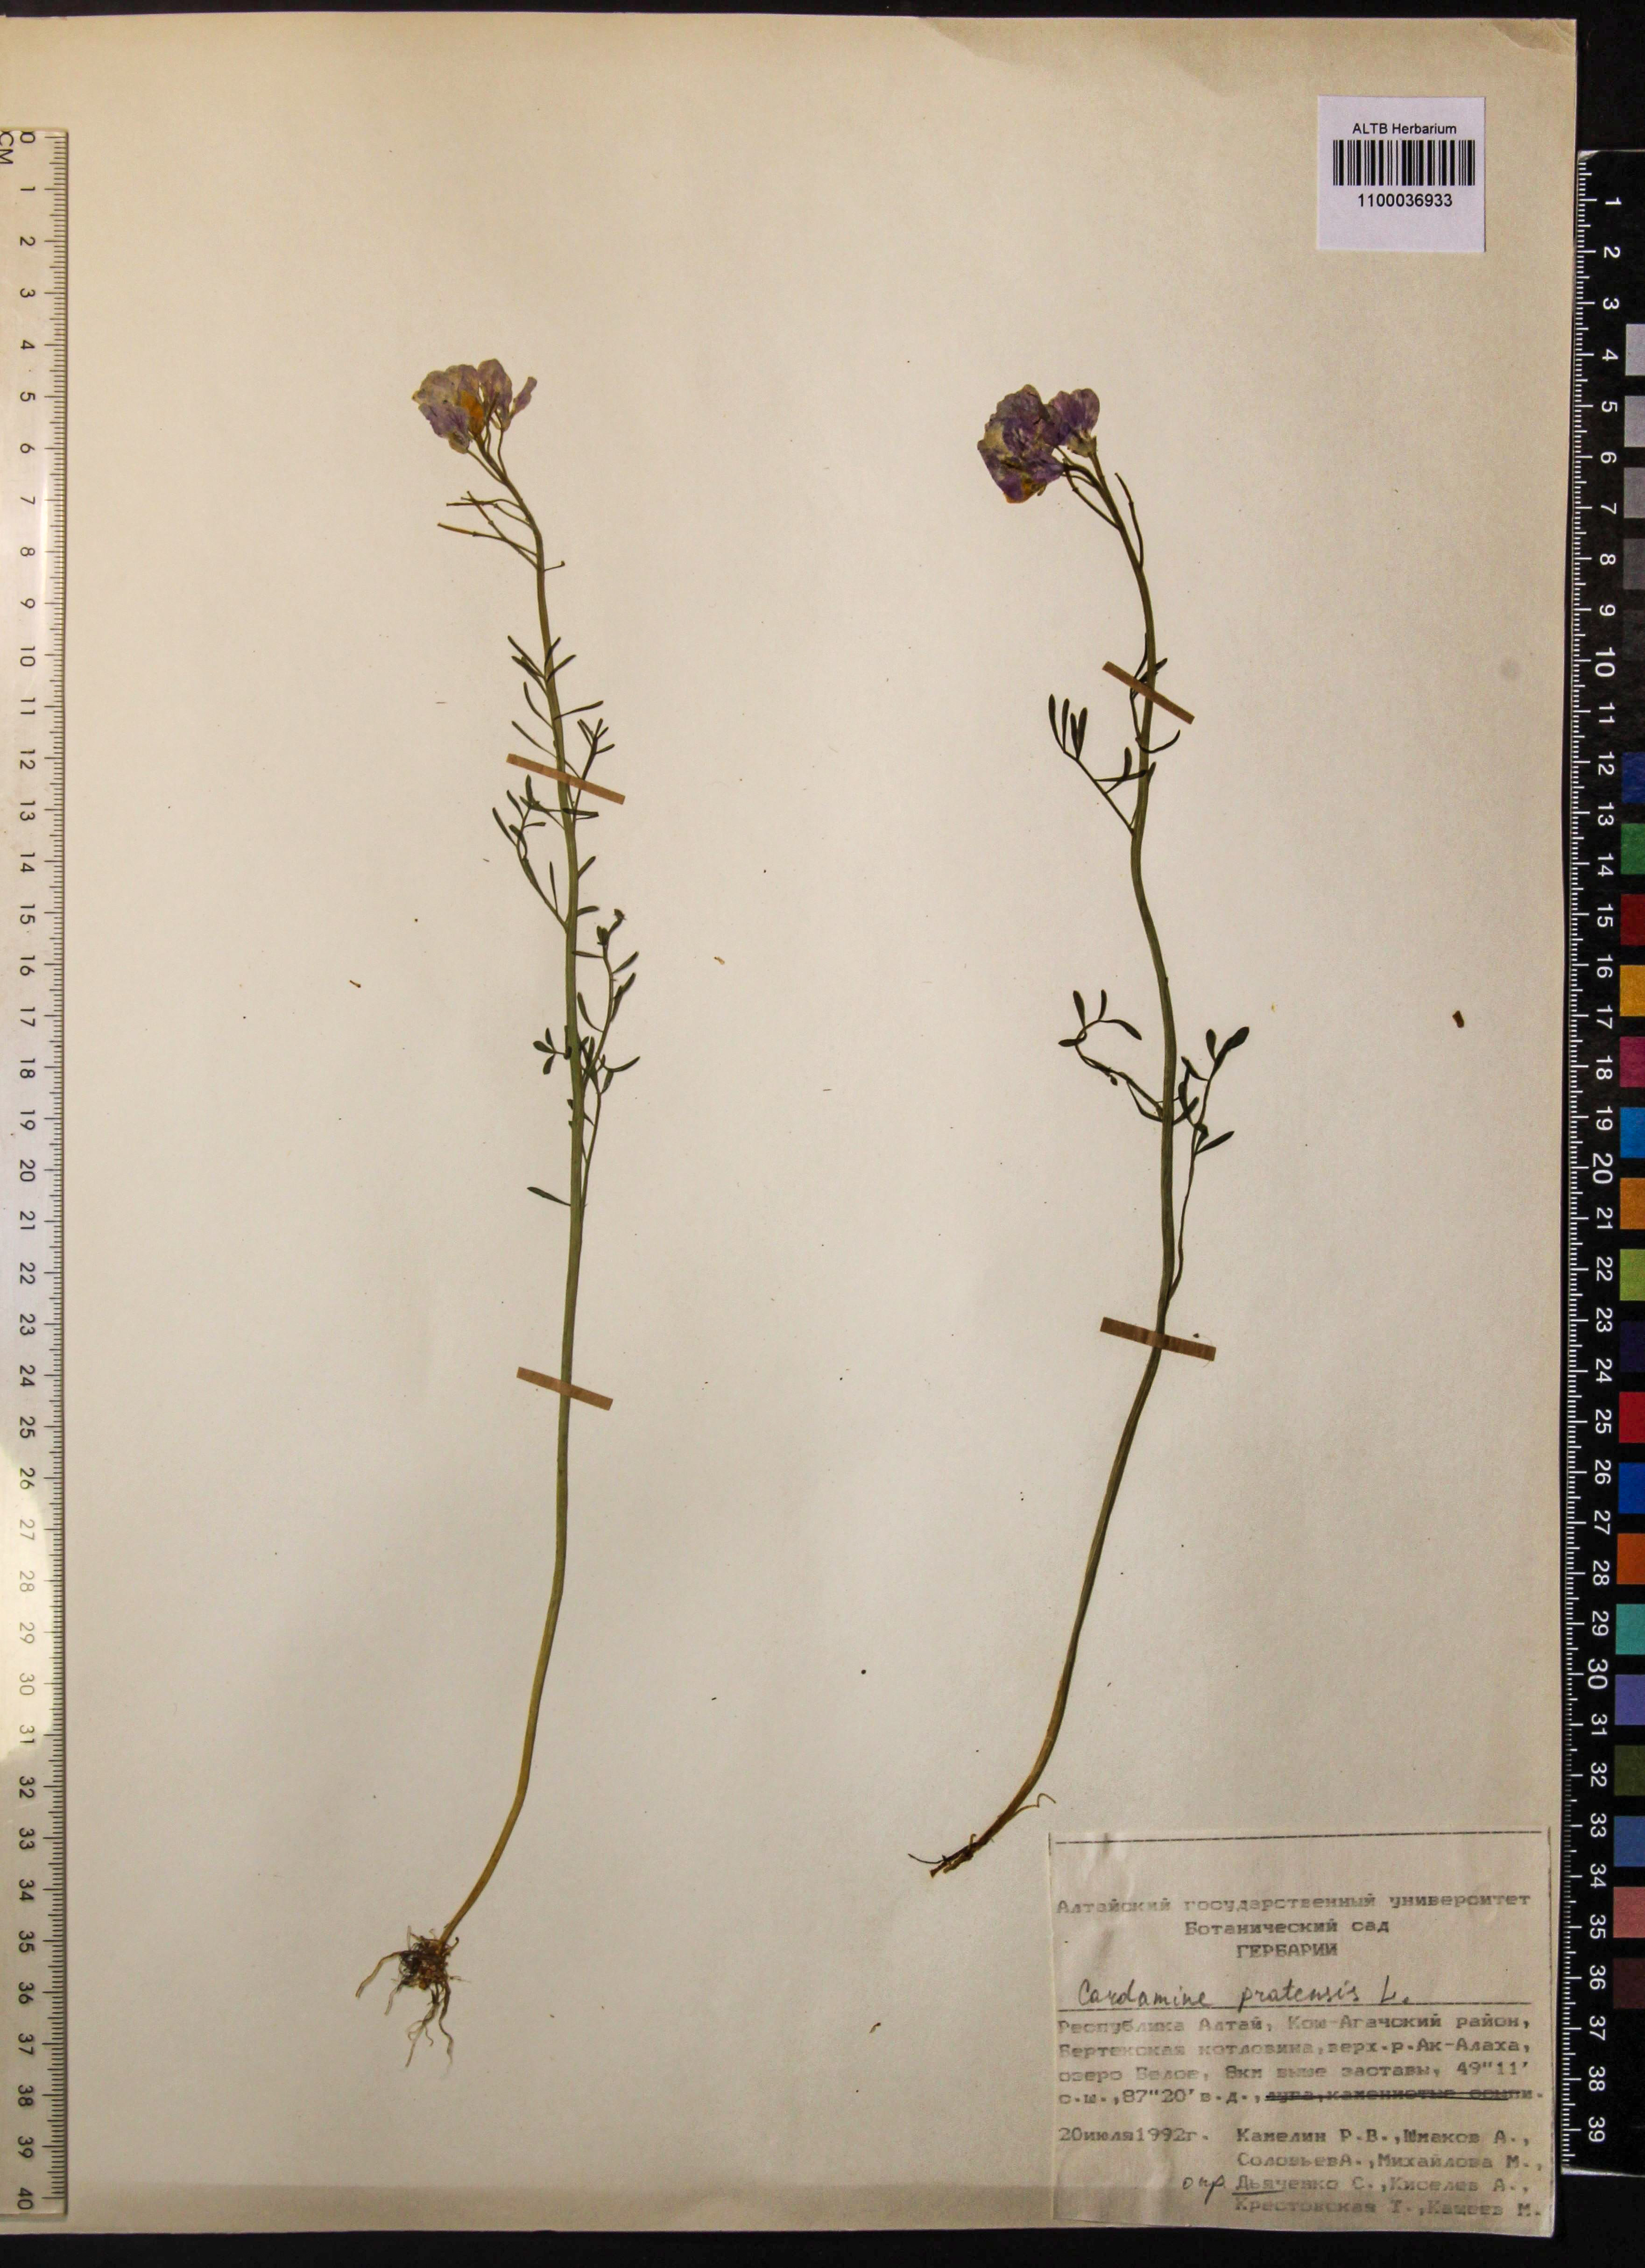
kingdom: Plantae
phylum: Tracheophyta
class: Magnoliopsida
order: Brassicales
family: Brassicaceae
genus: Cardamine
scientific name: Cardamine pratensis
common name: Cuckoo flower
